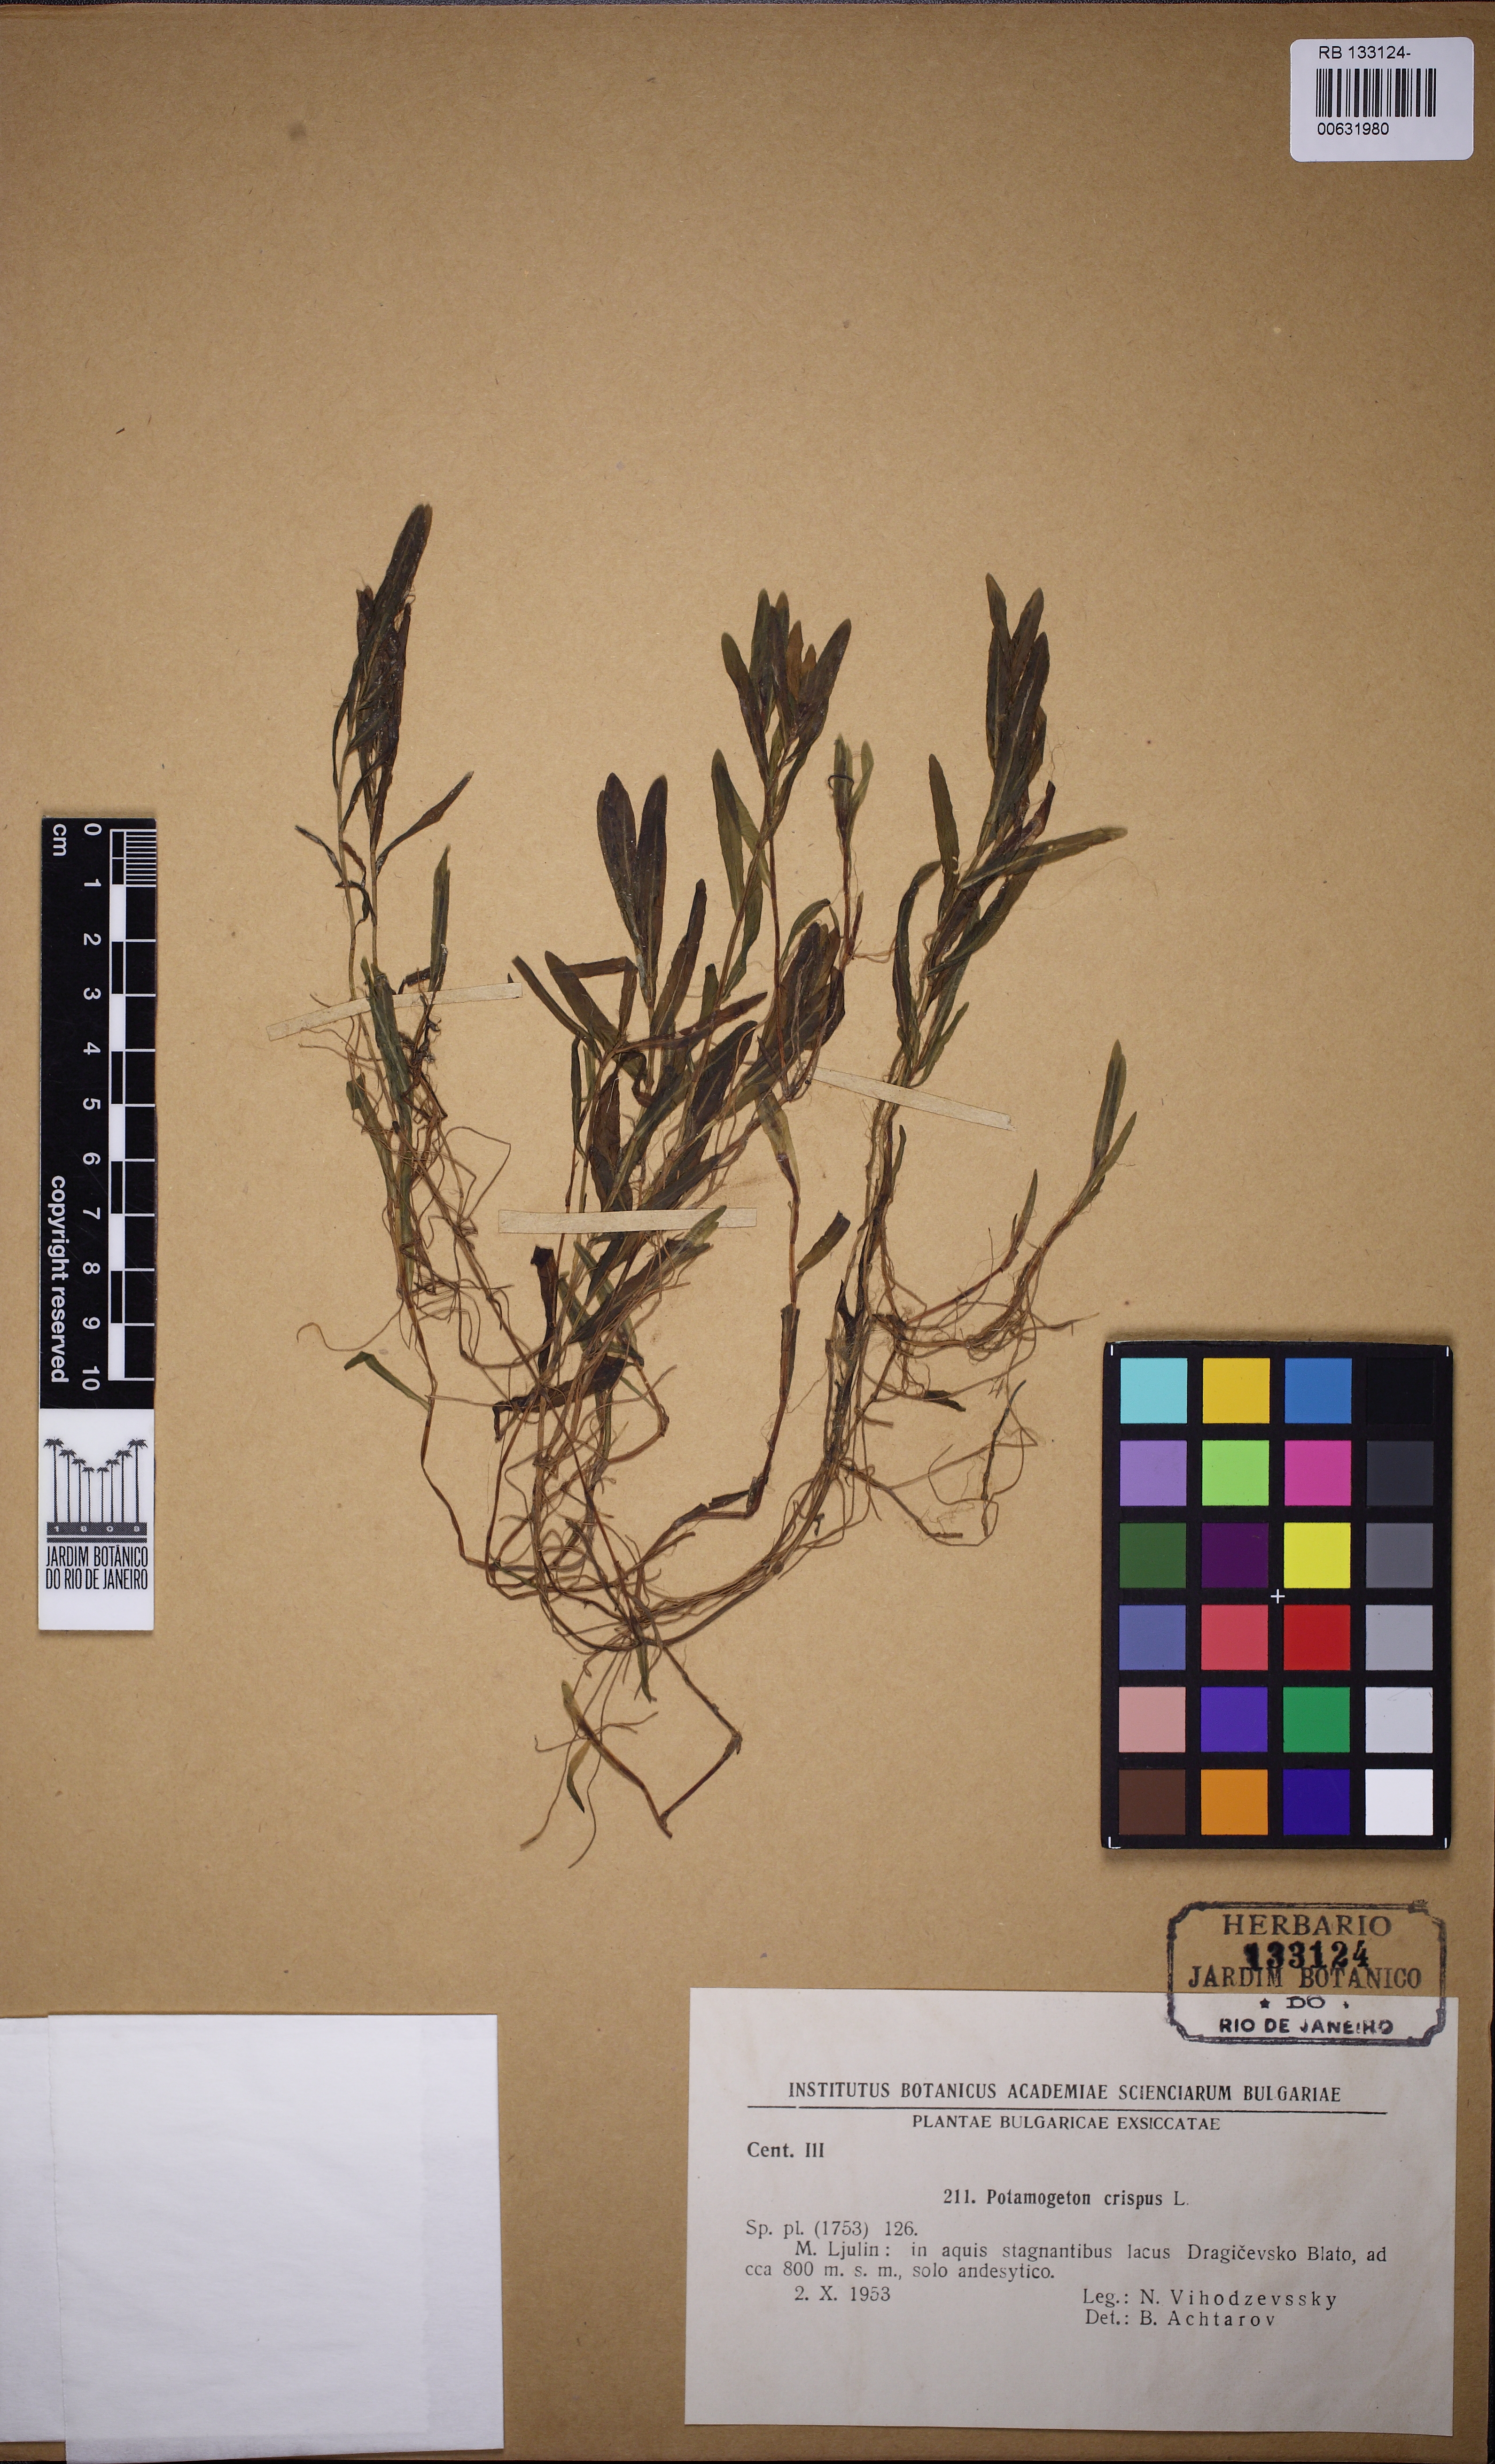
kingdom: Plantae
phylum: Tracheophyta
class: Liliopsida
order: Alismatales
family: Potamogetonaceae
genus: Potamogeton
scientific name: Potamogeton crispus
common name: Curled pondweed
